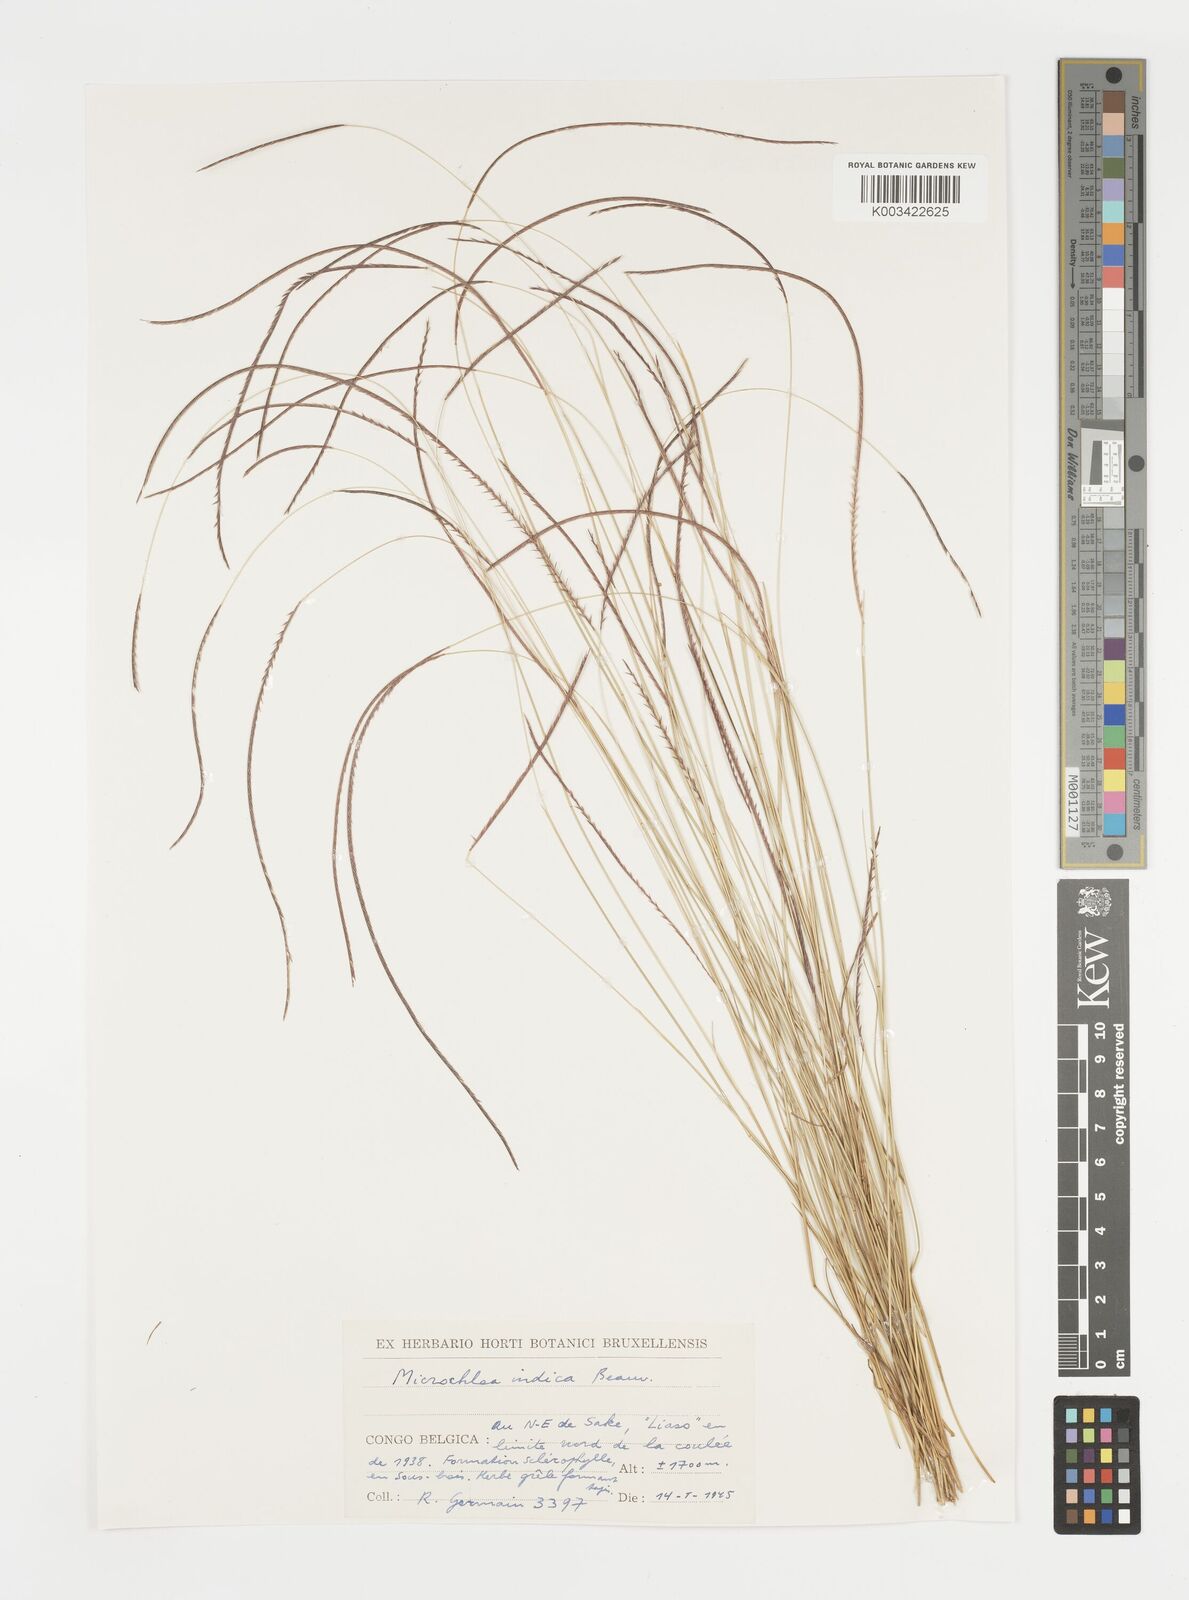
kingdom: Plantae
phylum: Tracheophyta
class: Liliopsida
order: Poales
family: Poaceae
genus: Microchloa
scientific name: Microchloa kunthii
